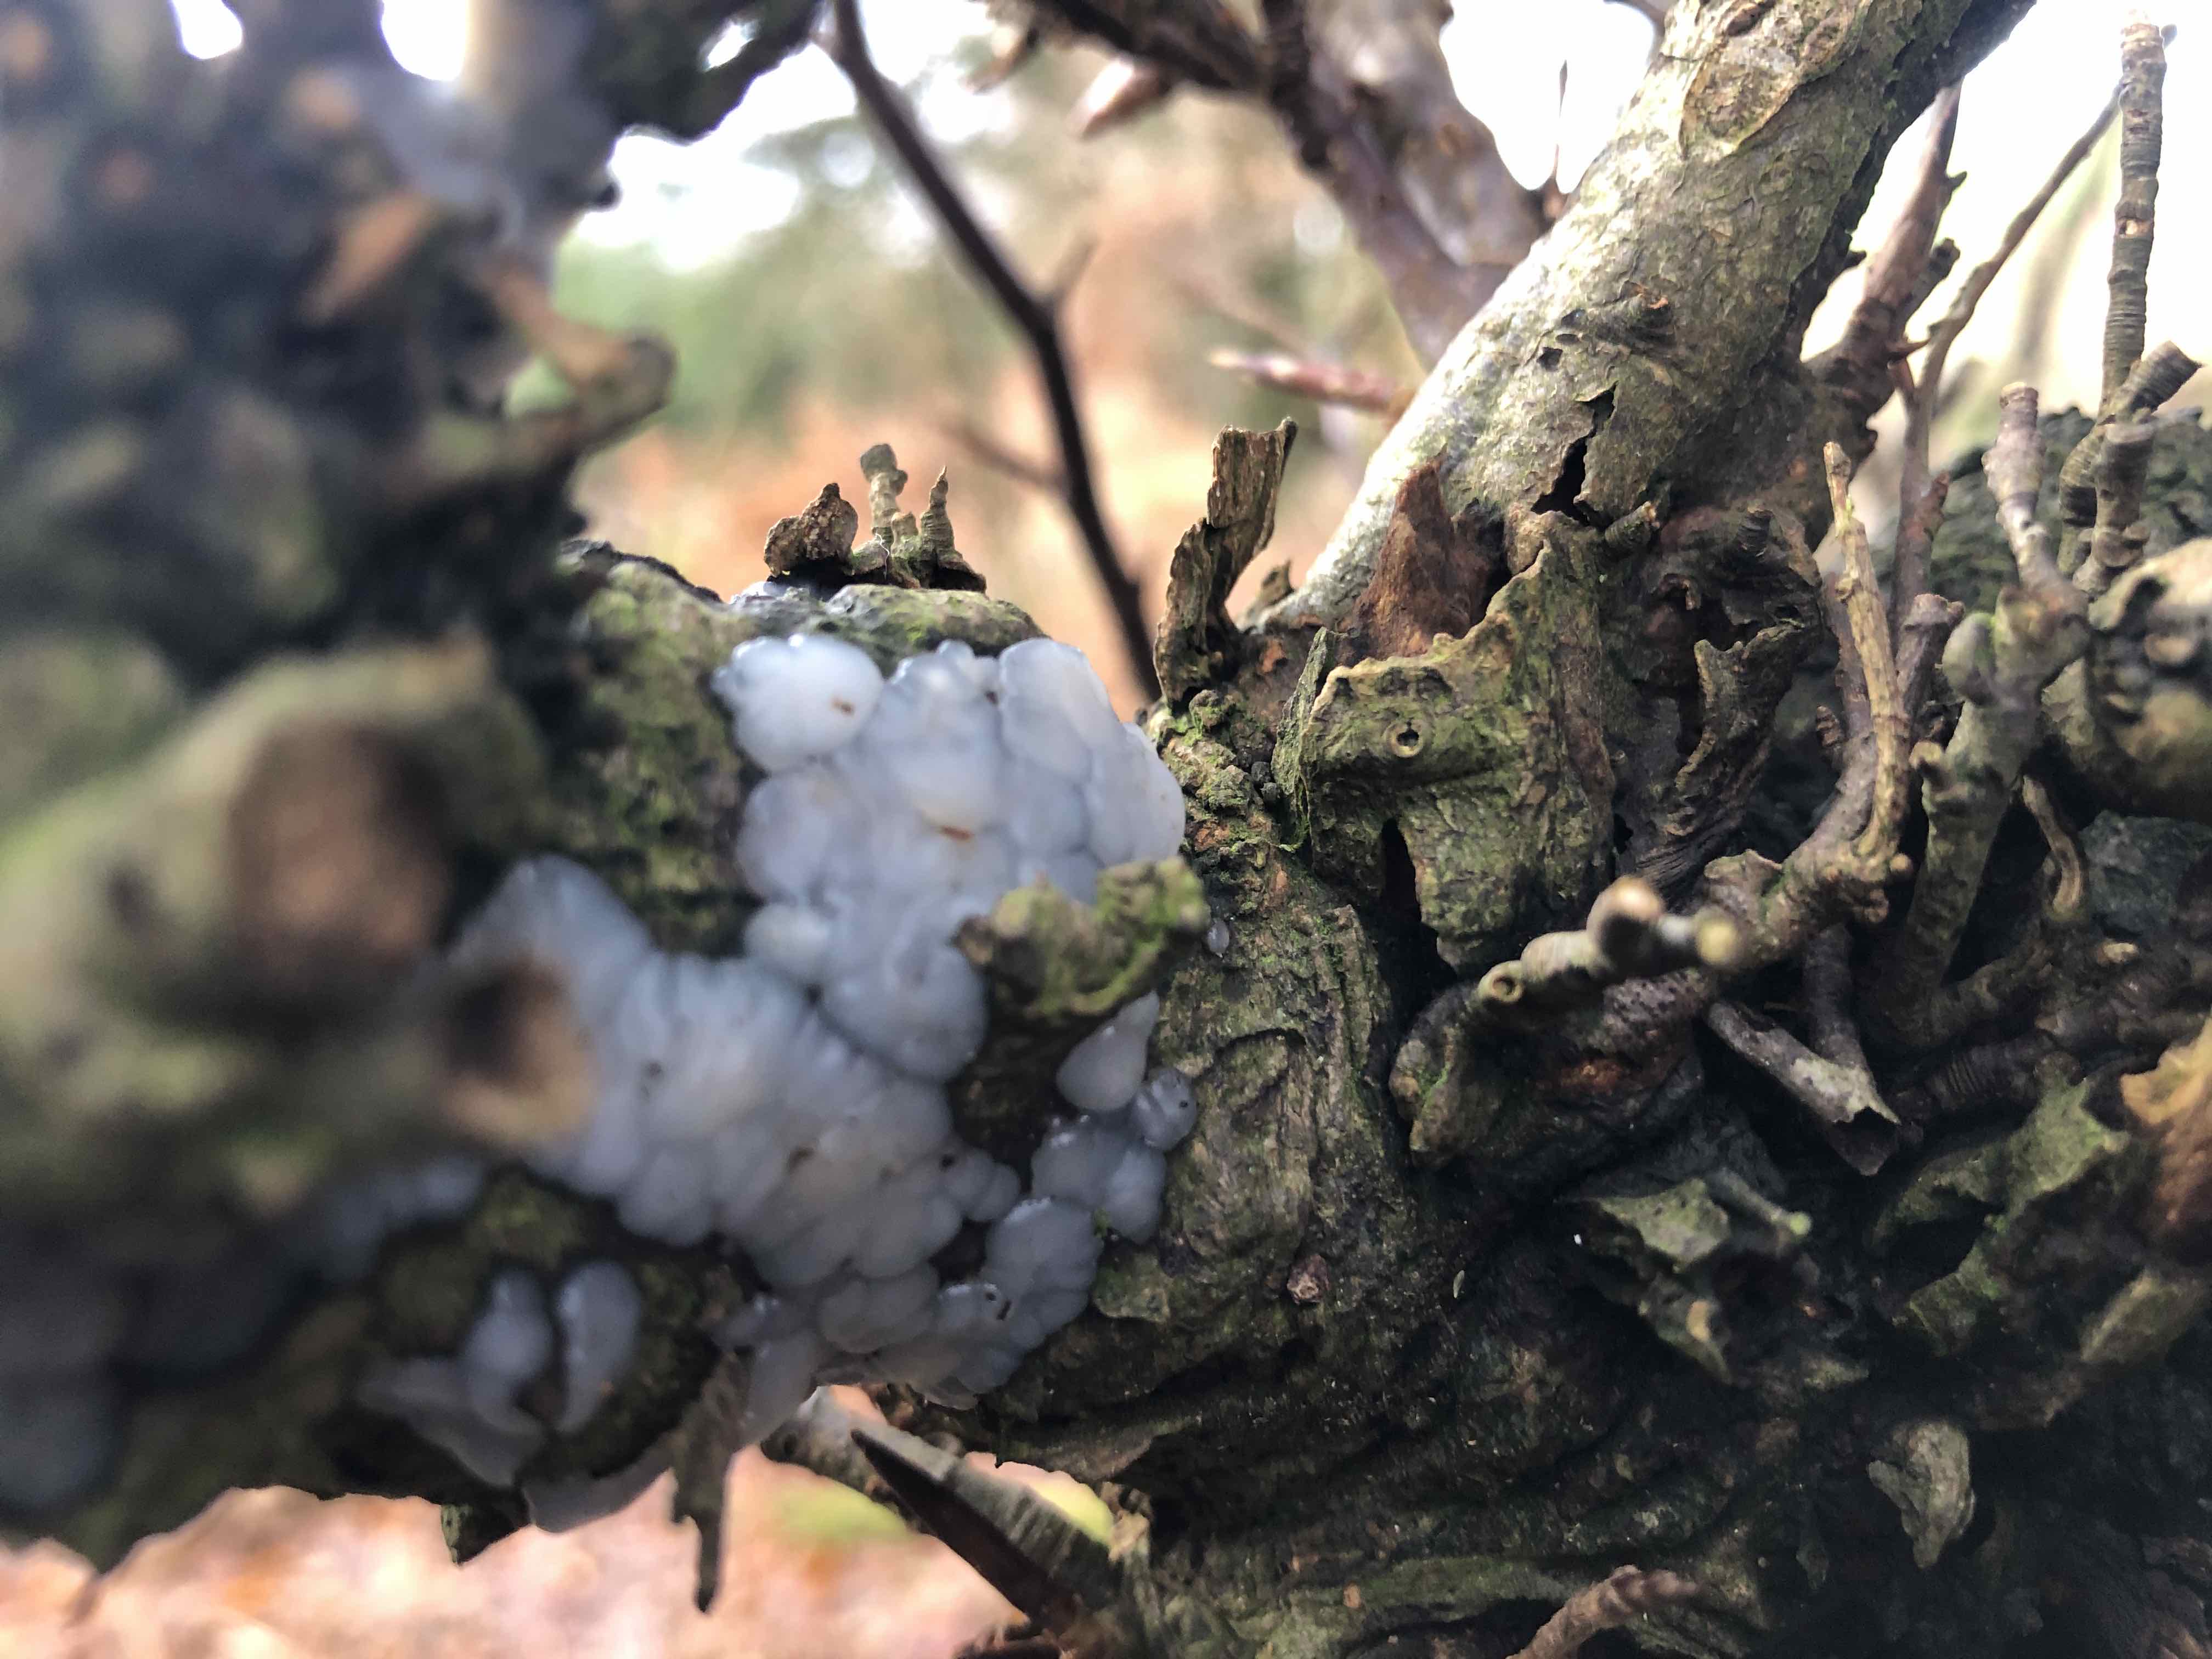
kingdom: Fungi
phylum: Basidiomycota
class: Agaricomycetes
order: Auriculariales
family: Auriculariaceae
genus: Exidia
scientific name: Exidia thuretiana
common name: hvidlig bævretop
